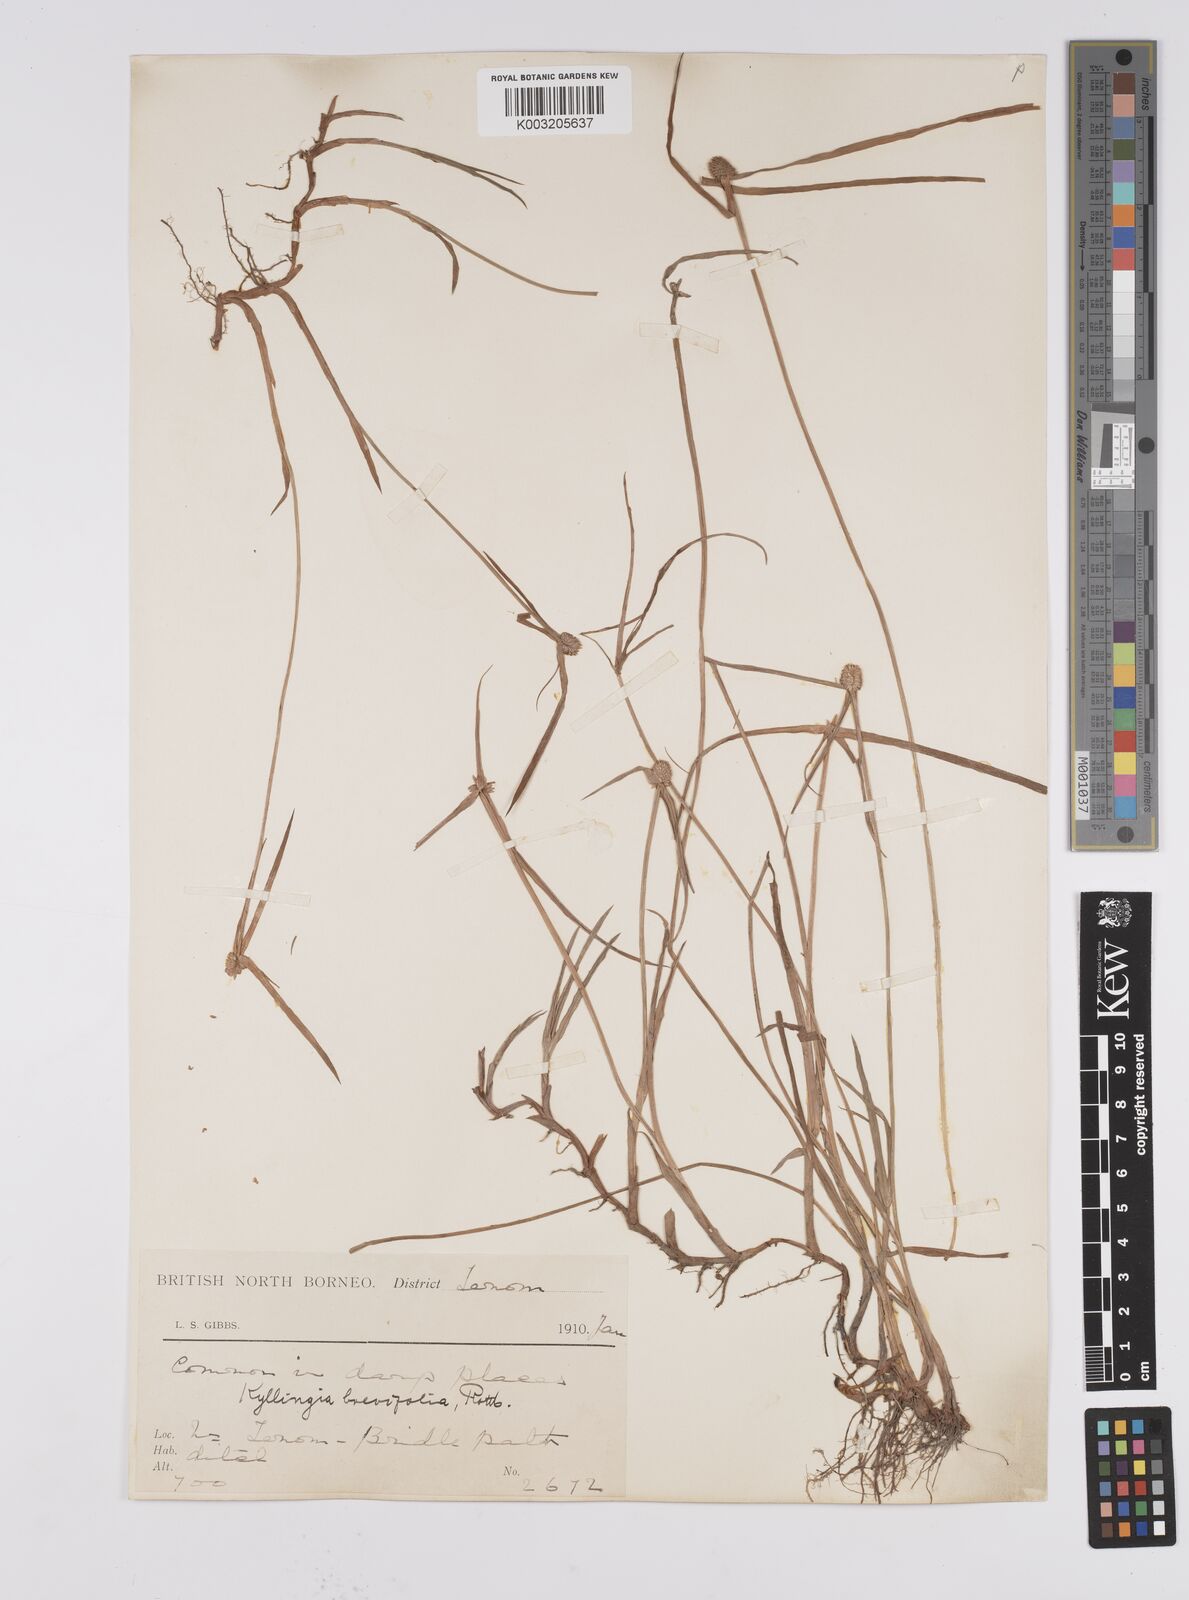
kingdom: Plantae
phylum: Tracheophyta
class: Liliopsida
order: Poales
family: Cyperaceae
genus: Cyperus
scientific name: Cyperus brevifolius
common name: Globe kyllinga
